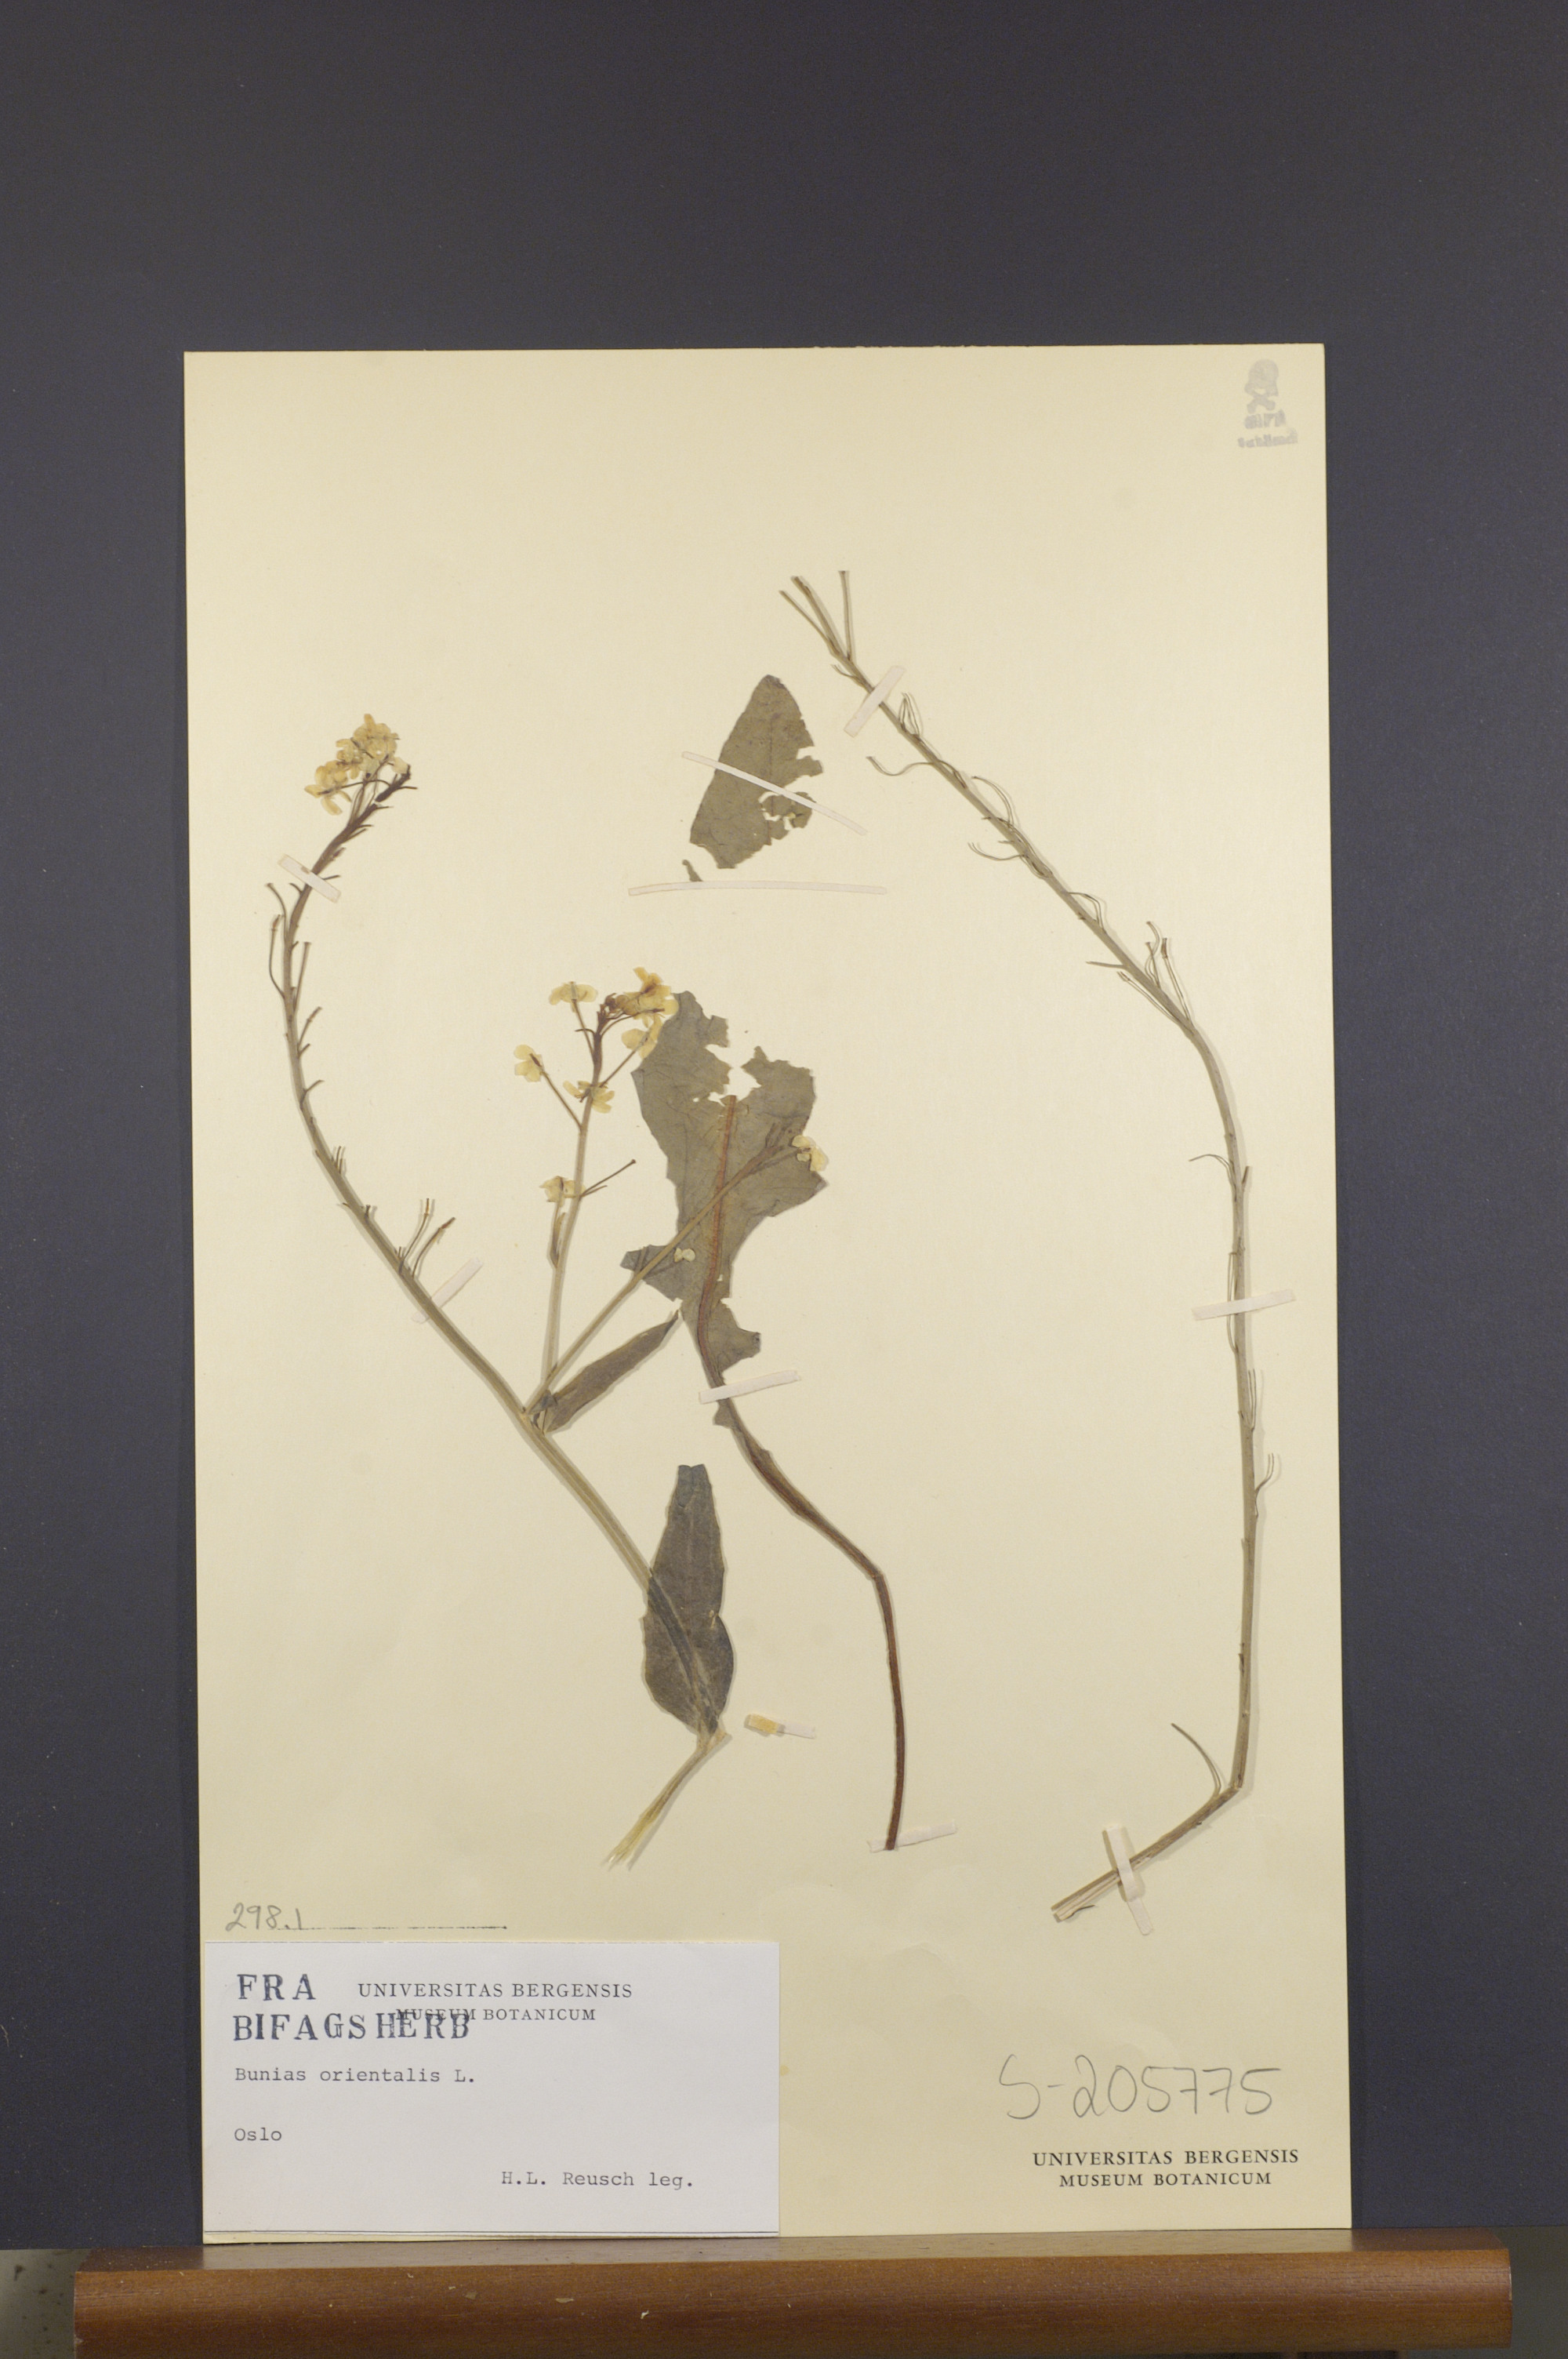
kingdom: Plantae
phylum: Tracheophyta
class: Magnoliopsida
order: Brassicales
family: Brassicaceae
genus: Bunias
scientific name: Bunias orientalis
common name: Warty-cabbage
